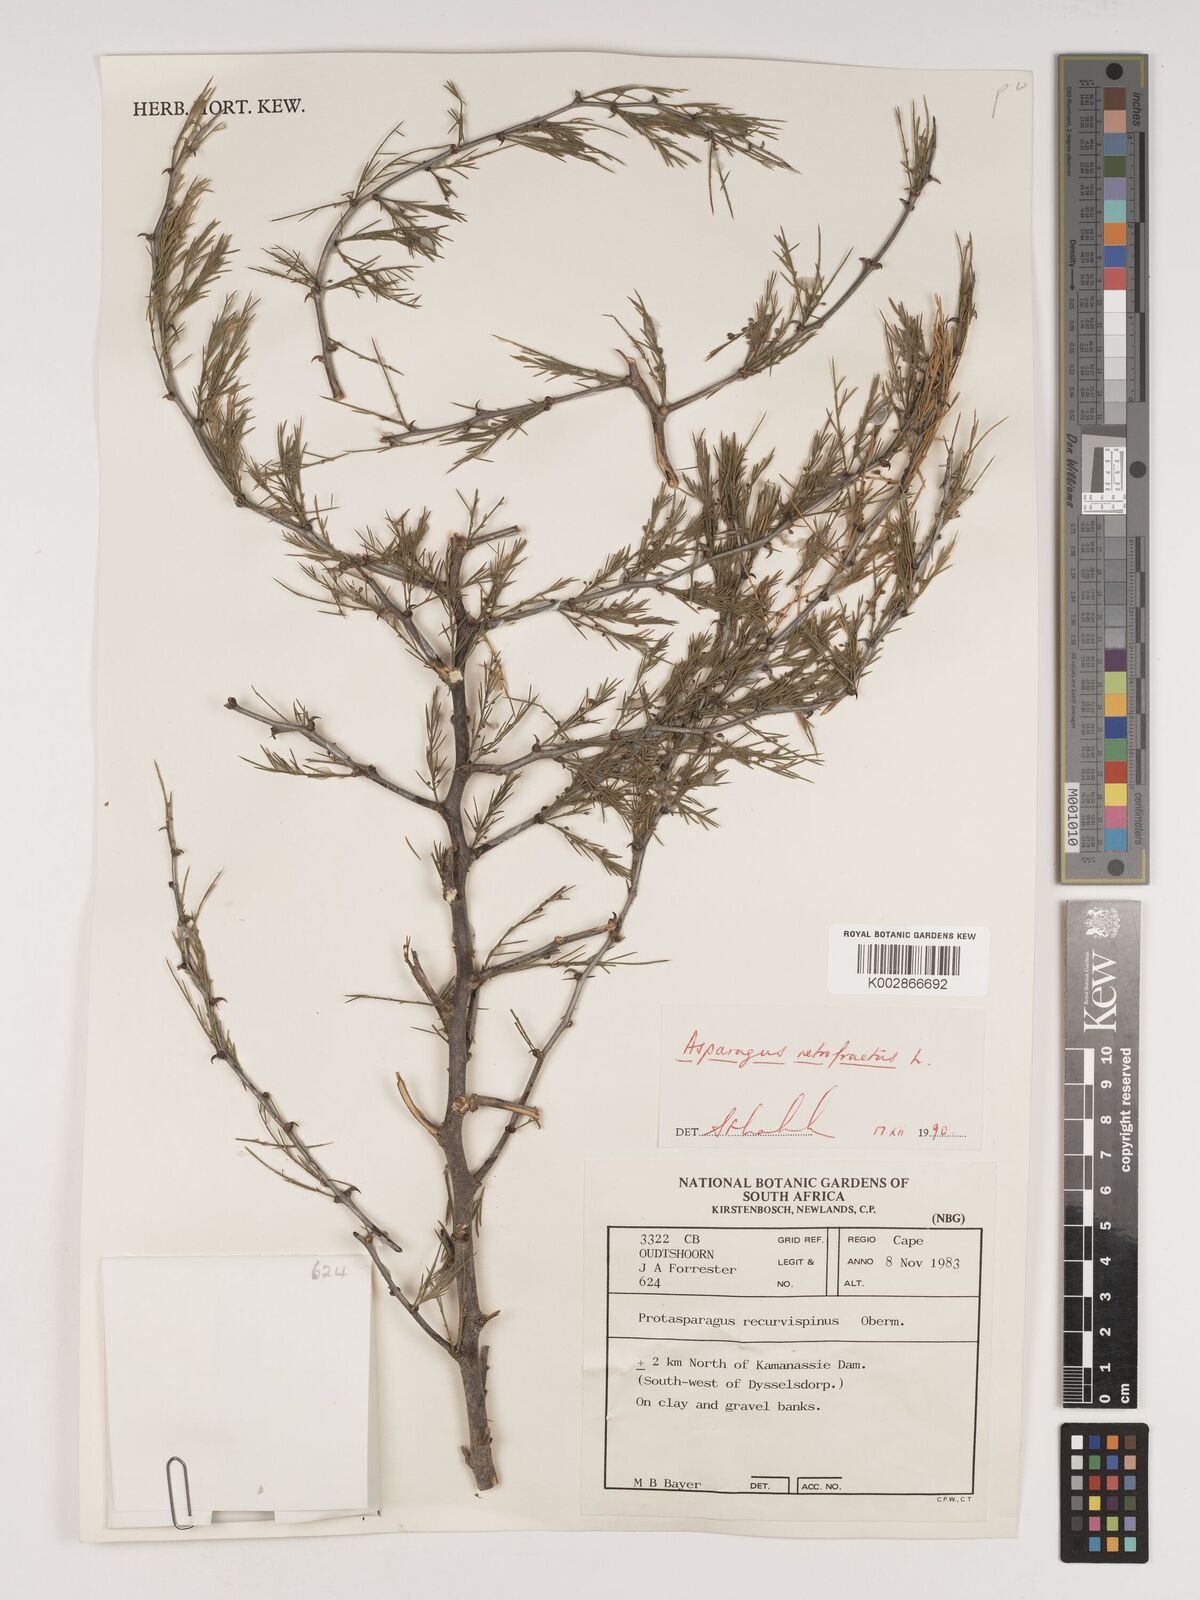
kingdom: Plantae
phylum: Tracheophyta
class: Liliopsida
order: Asparagales
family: Asparagaceae
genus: Asparagus
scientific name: Asparagus retrofractus
